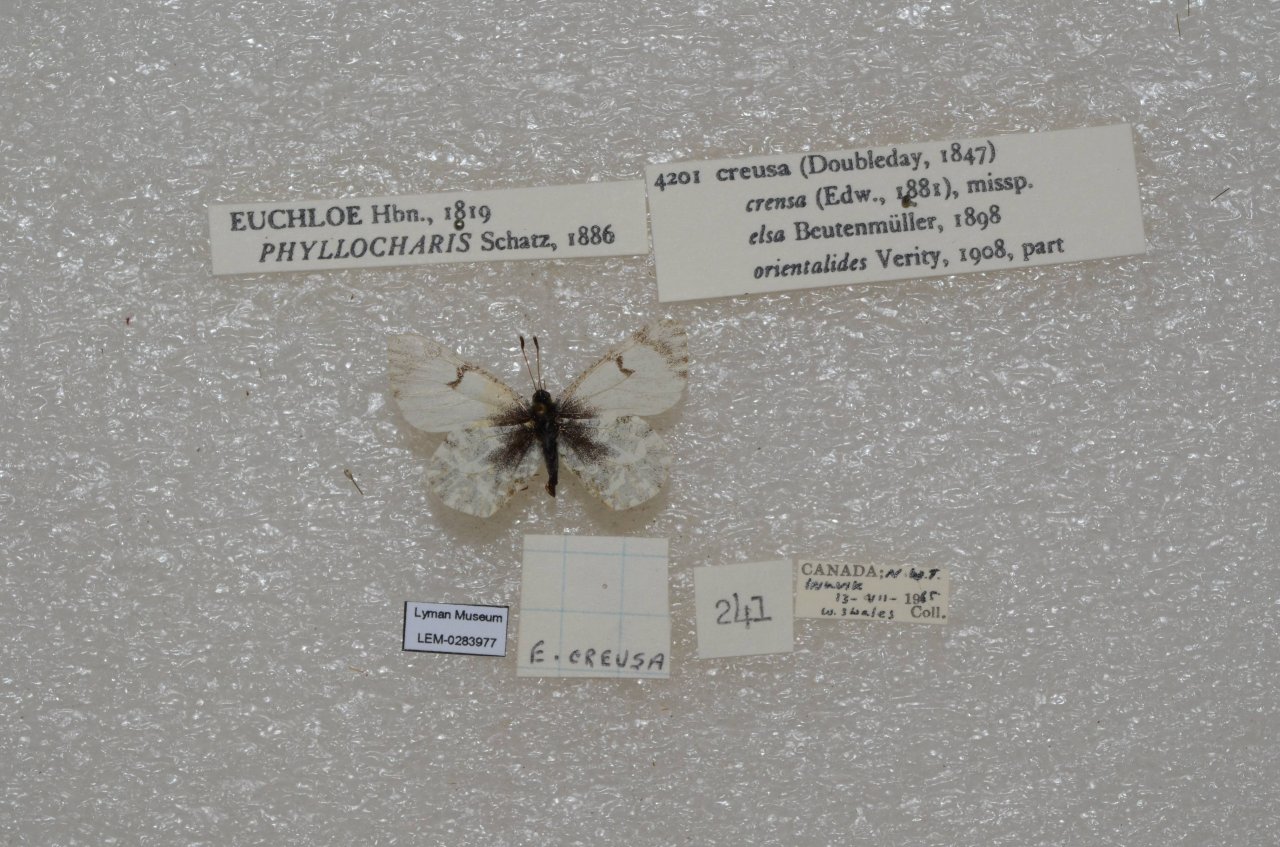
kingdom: Animalia
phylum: Arthropoda
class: Insecta
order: Lepidoptera
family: Pieridae
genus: Euchloe
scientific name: Euchloe ausonides
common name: Large Marble
